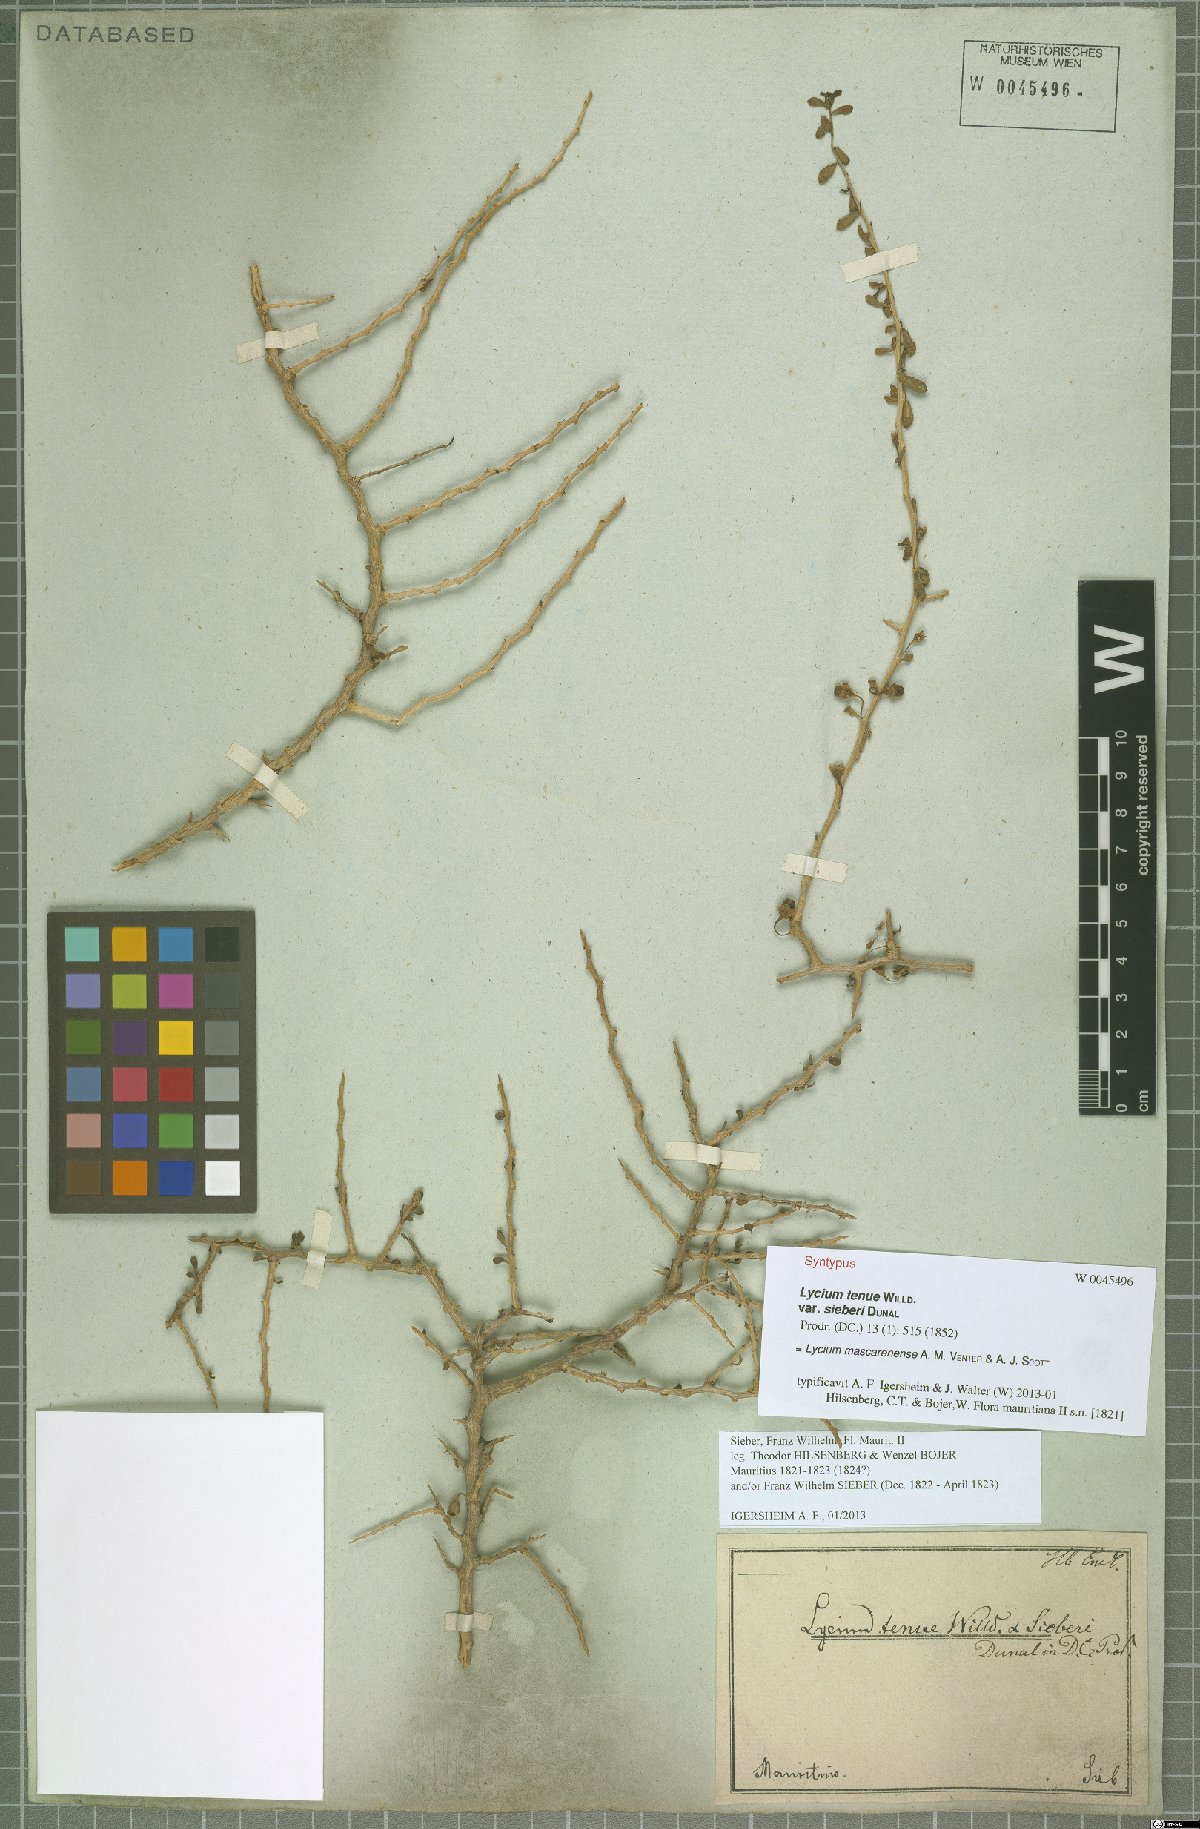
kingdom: Plantae
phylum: Tracheophyta
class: Magnoliopsida
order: Solanales
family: Solanaceae
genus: Lycium
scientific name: Lycium mascarenense
